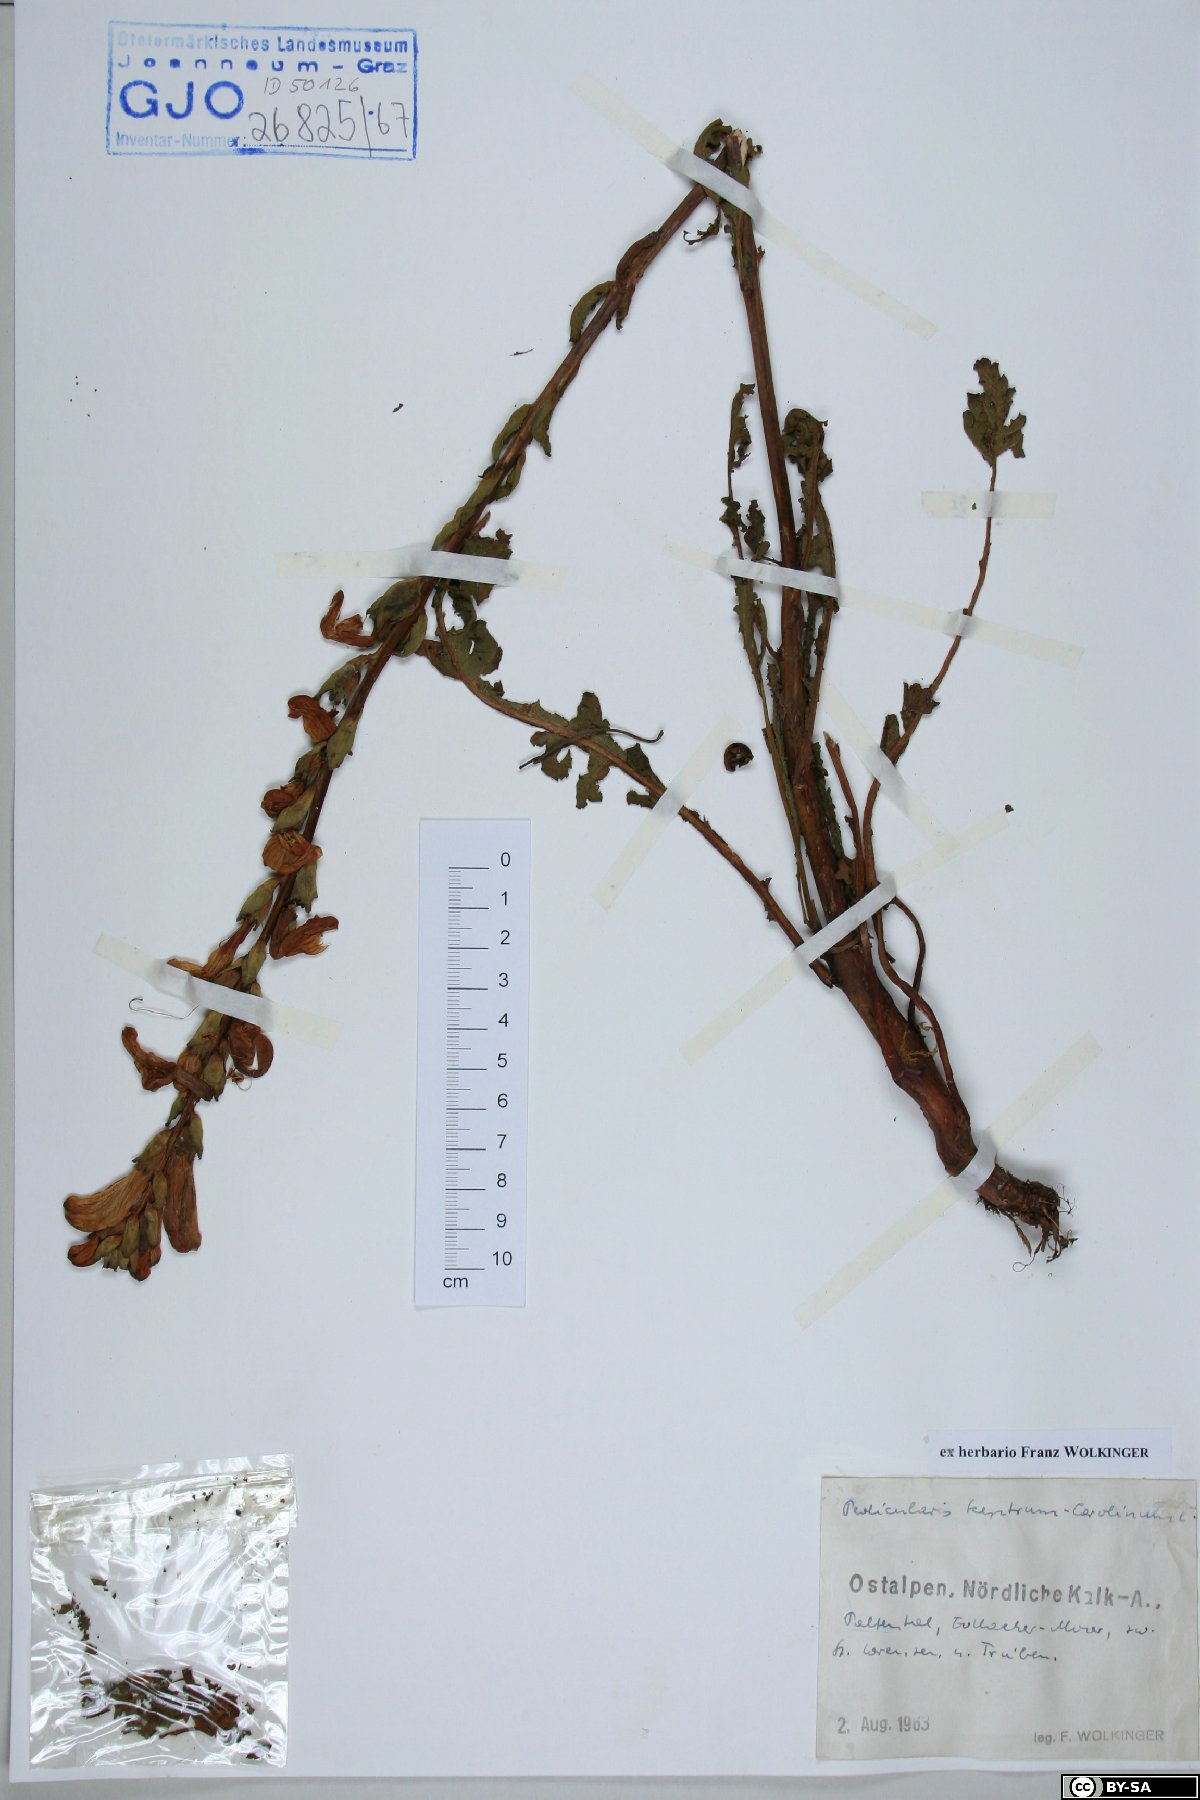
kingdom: Plantae
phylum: Tracheophyta
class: Magnoliopsida
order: Lamiales
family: Orobanchaceae
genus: Pedicularis
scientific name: Pedicularis sceptrum-carolinum
